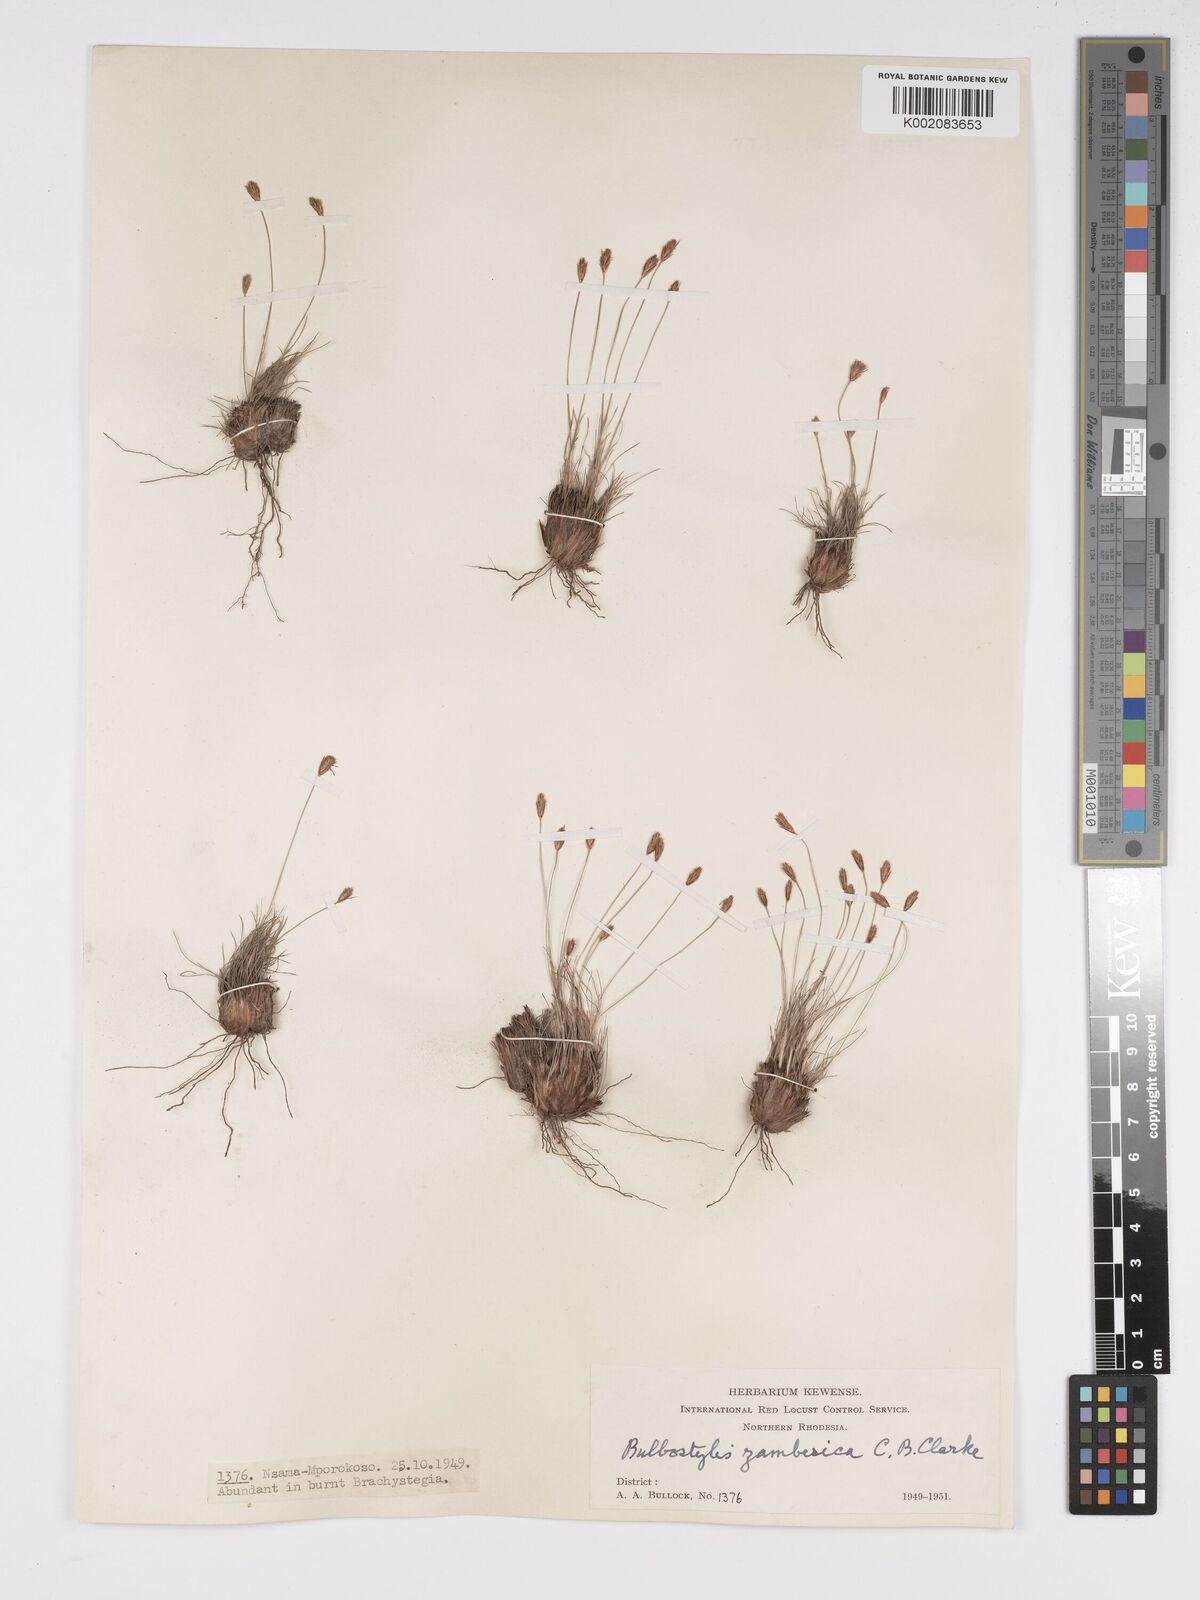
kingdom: Plantae
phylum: Tracheophyta
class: Liliopsida
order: Poales
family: Cyperaceae
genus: Bulbostylis
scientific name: Bulbostylis macra
